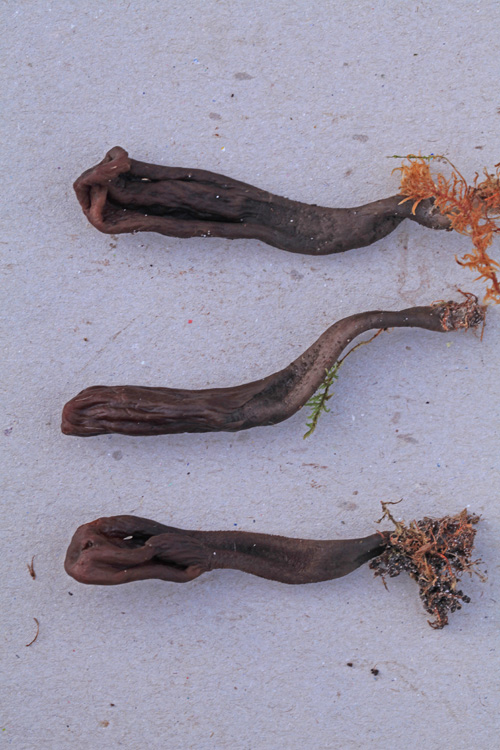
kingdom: Fungi
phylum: Ascomycota
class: Geoglossomycetes
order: Geoglossales
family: Geoglossaceae
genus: Geoglossum
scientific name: Geoglossum atropurpureum
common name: purpursort farvetunge
